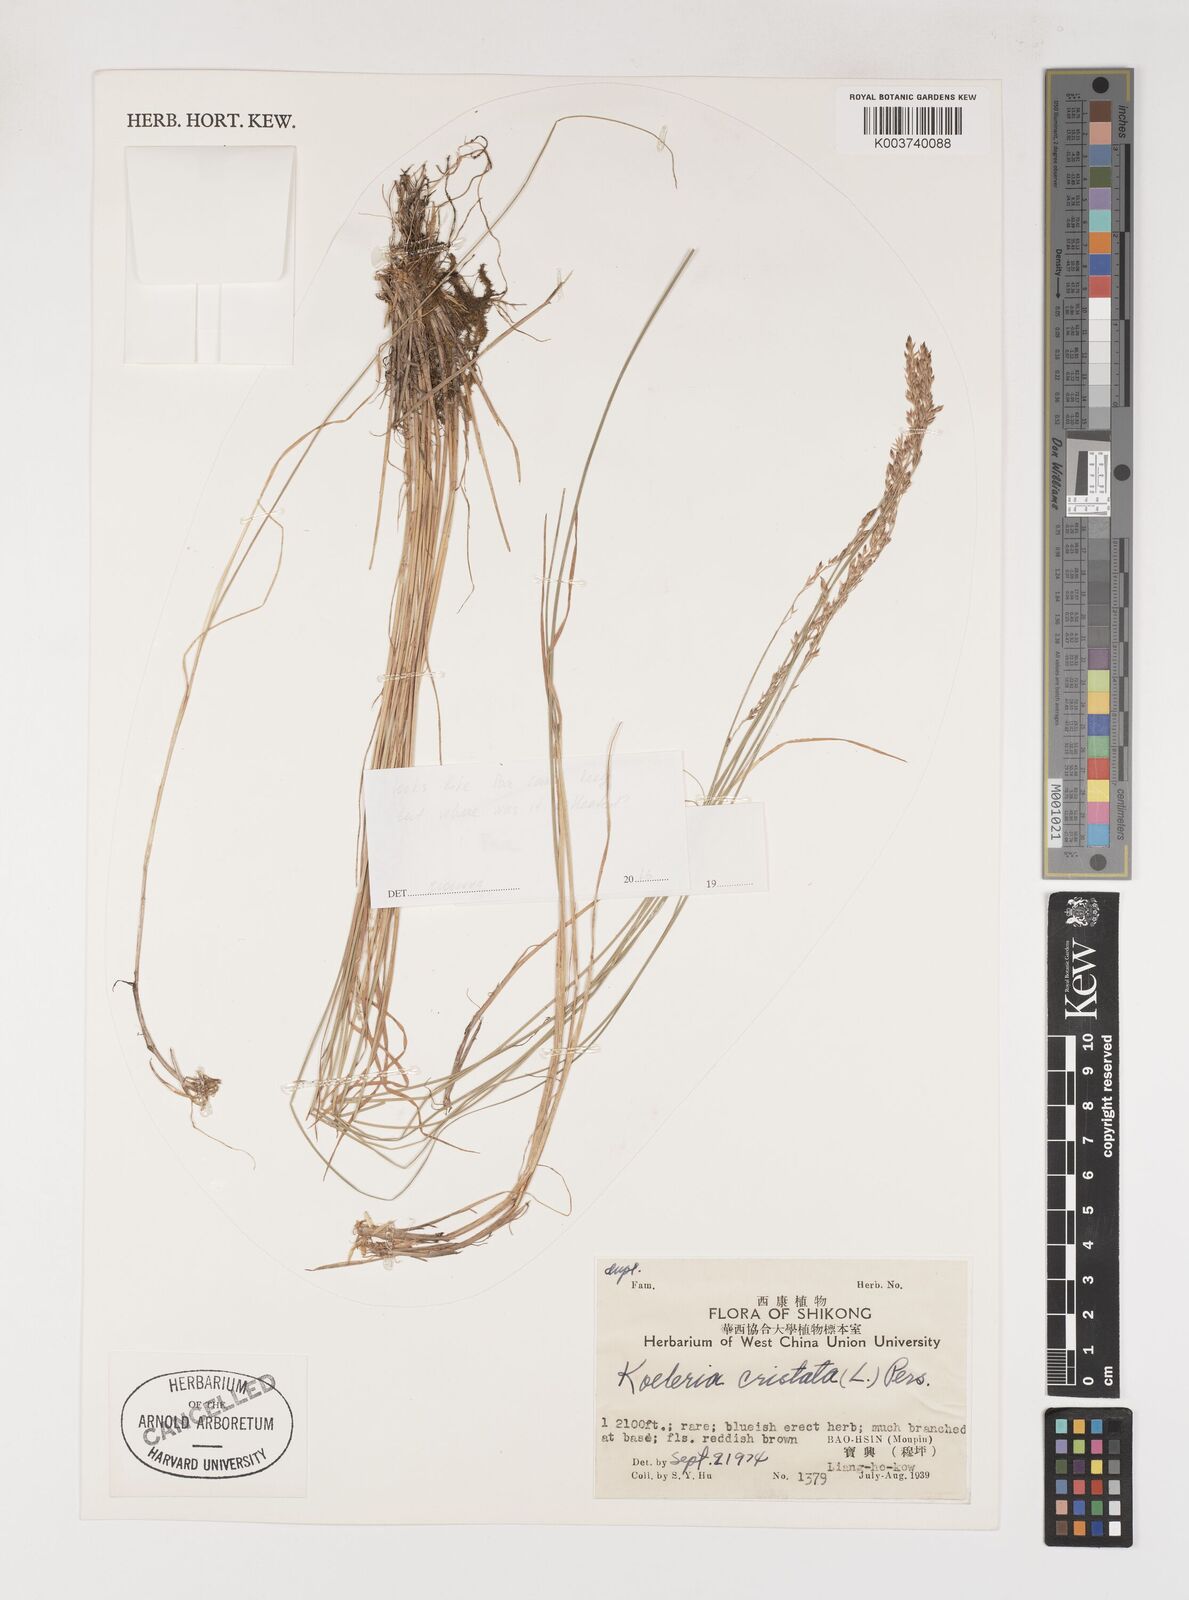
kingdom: Plantae
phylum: Tracheophyta
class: Liliopsida
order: Poales
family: Poaceae
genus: Poa
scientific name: Poa
